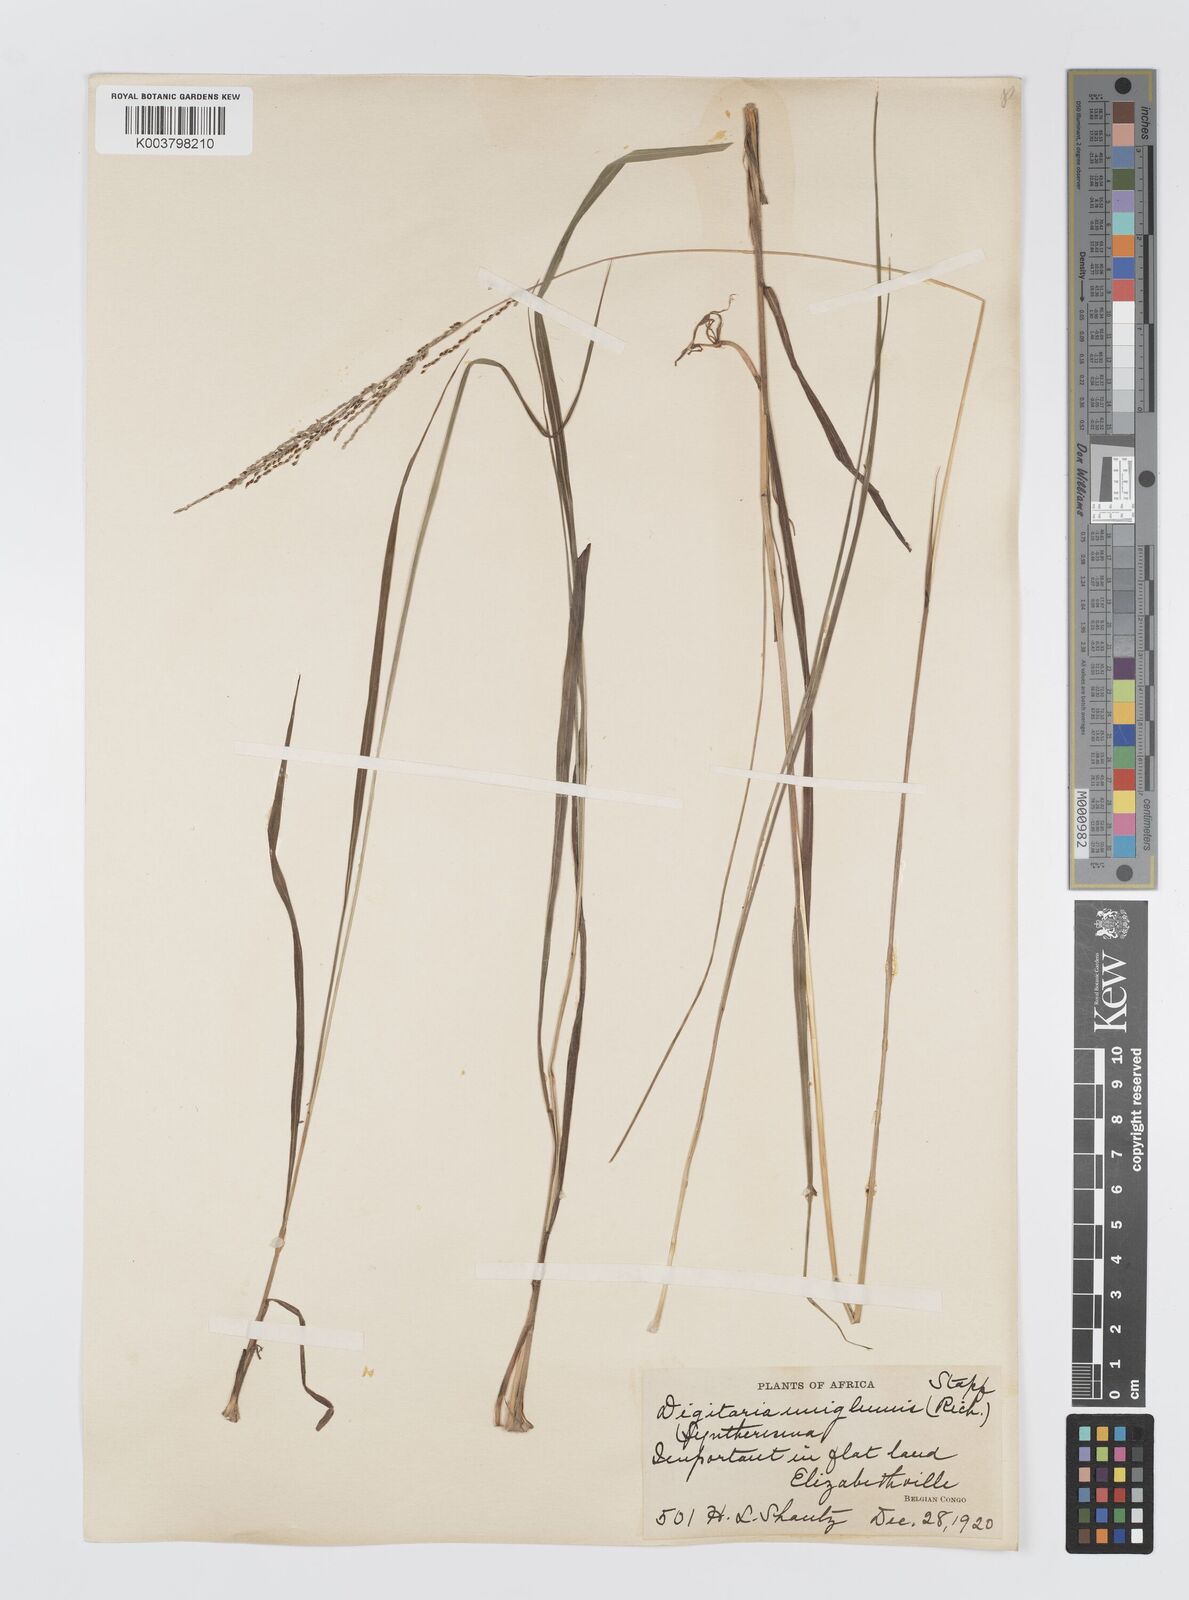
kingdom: Plantae
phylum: Tracheophyta
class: Liliopsida
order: Poales
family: Poaceae
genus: Digitaria
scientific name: Digitaria diagonalis
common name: Brown-seed finger grass
